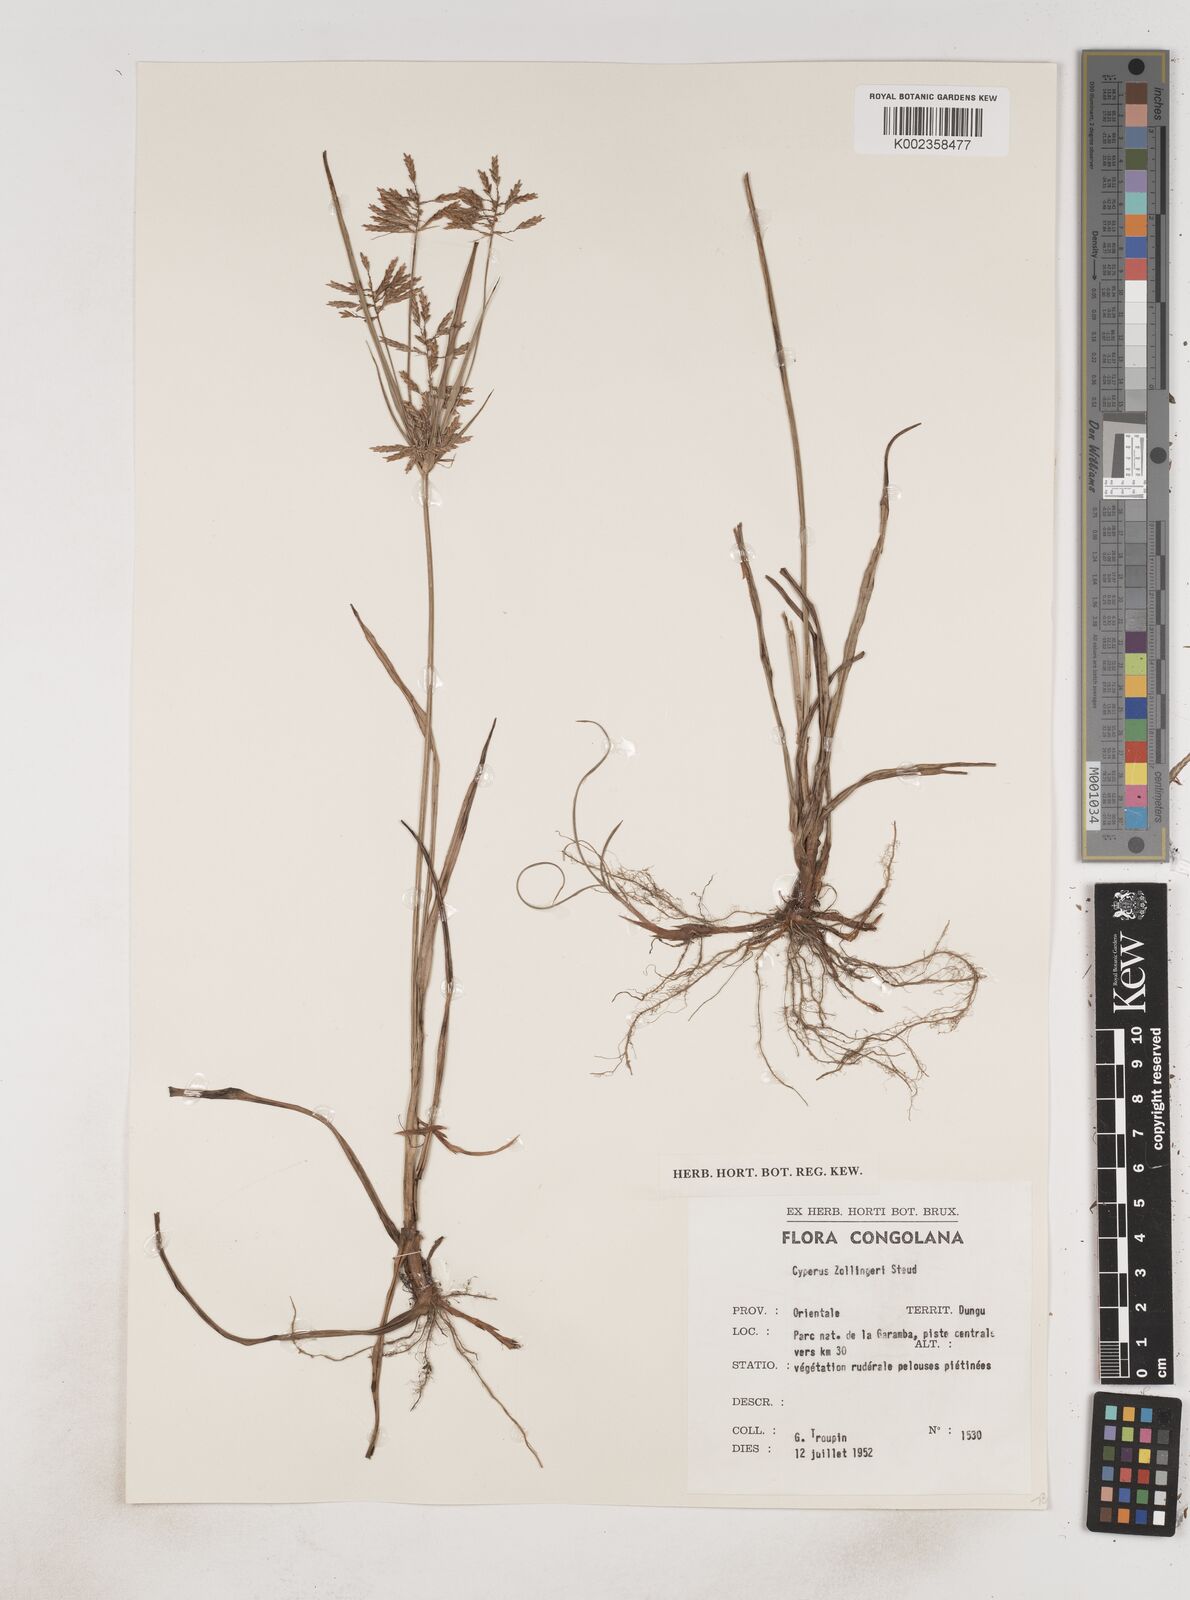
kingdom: Plantae
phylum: Tracheophyta
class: Liliopsida
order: Poales
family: Cyperaceae
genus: Cyperus
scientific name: Cyperus dilatatus
